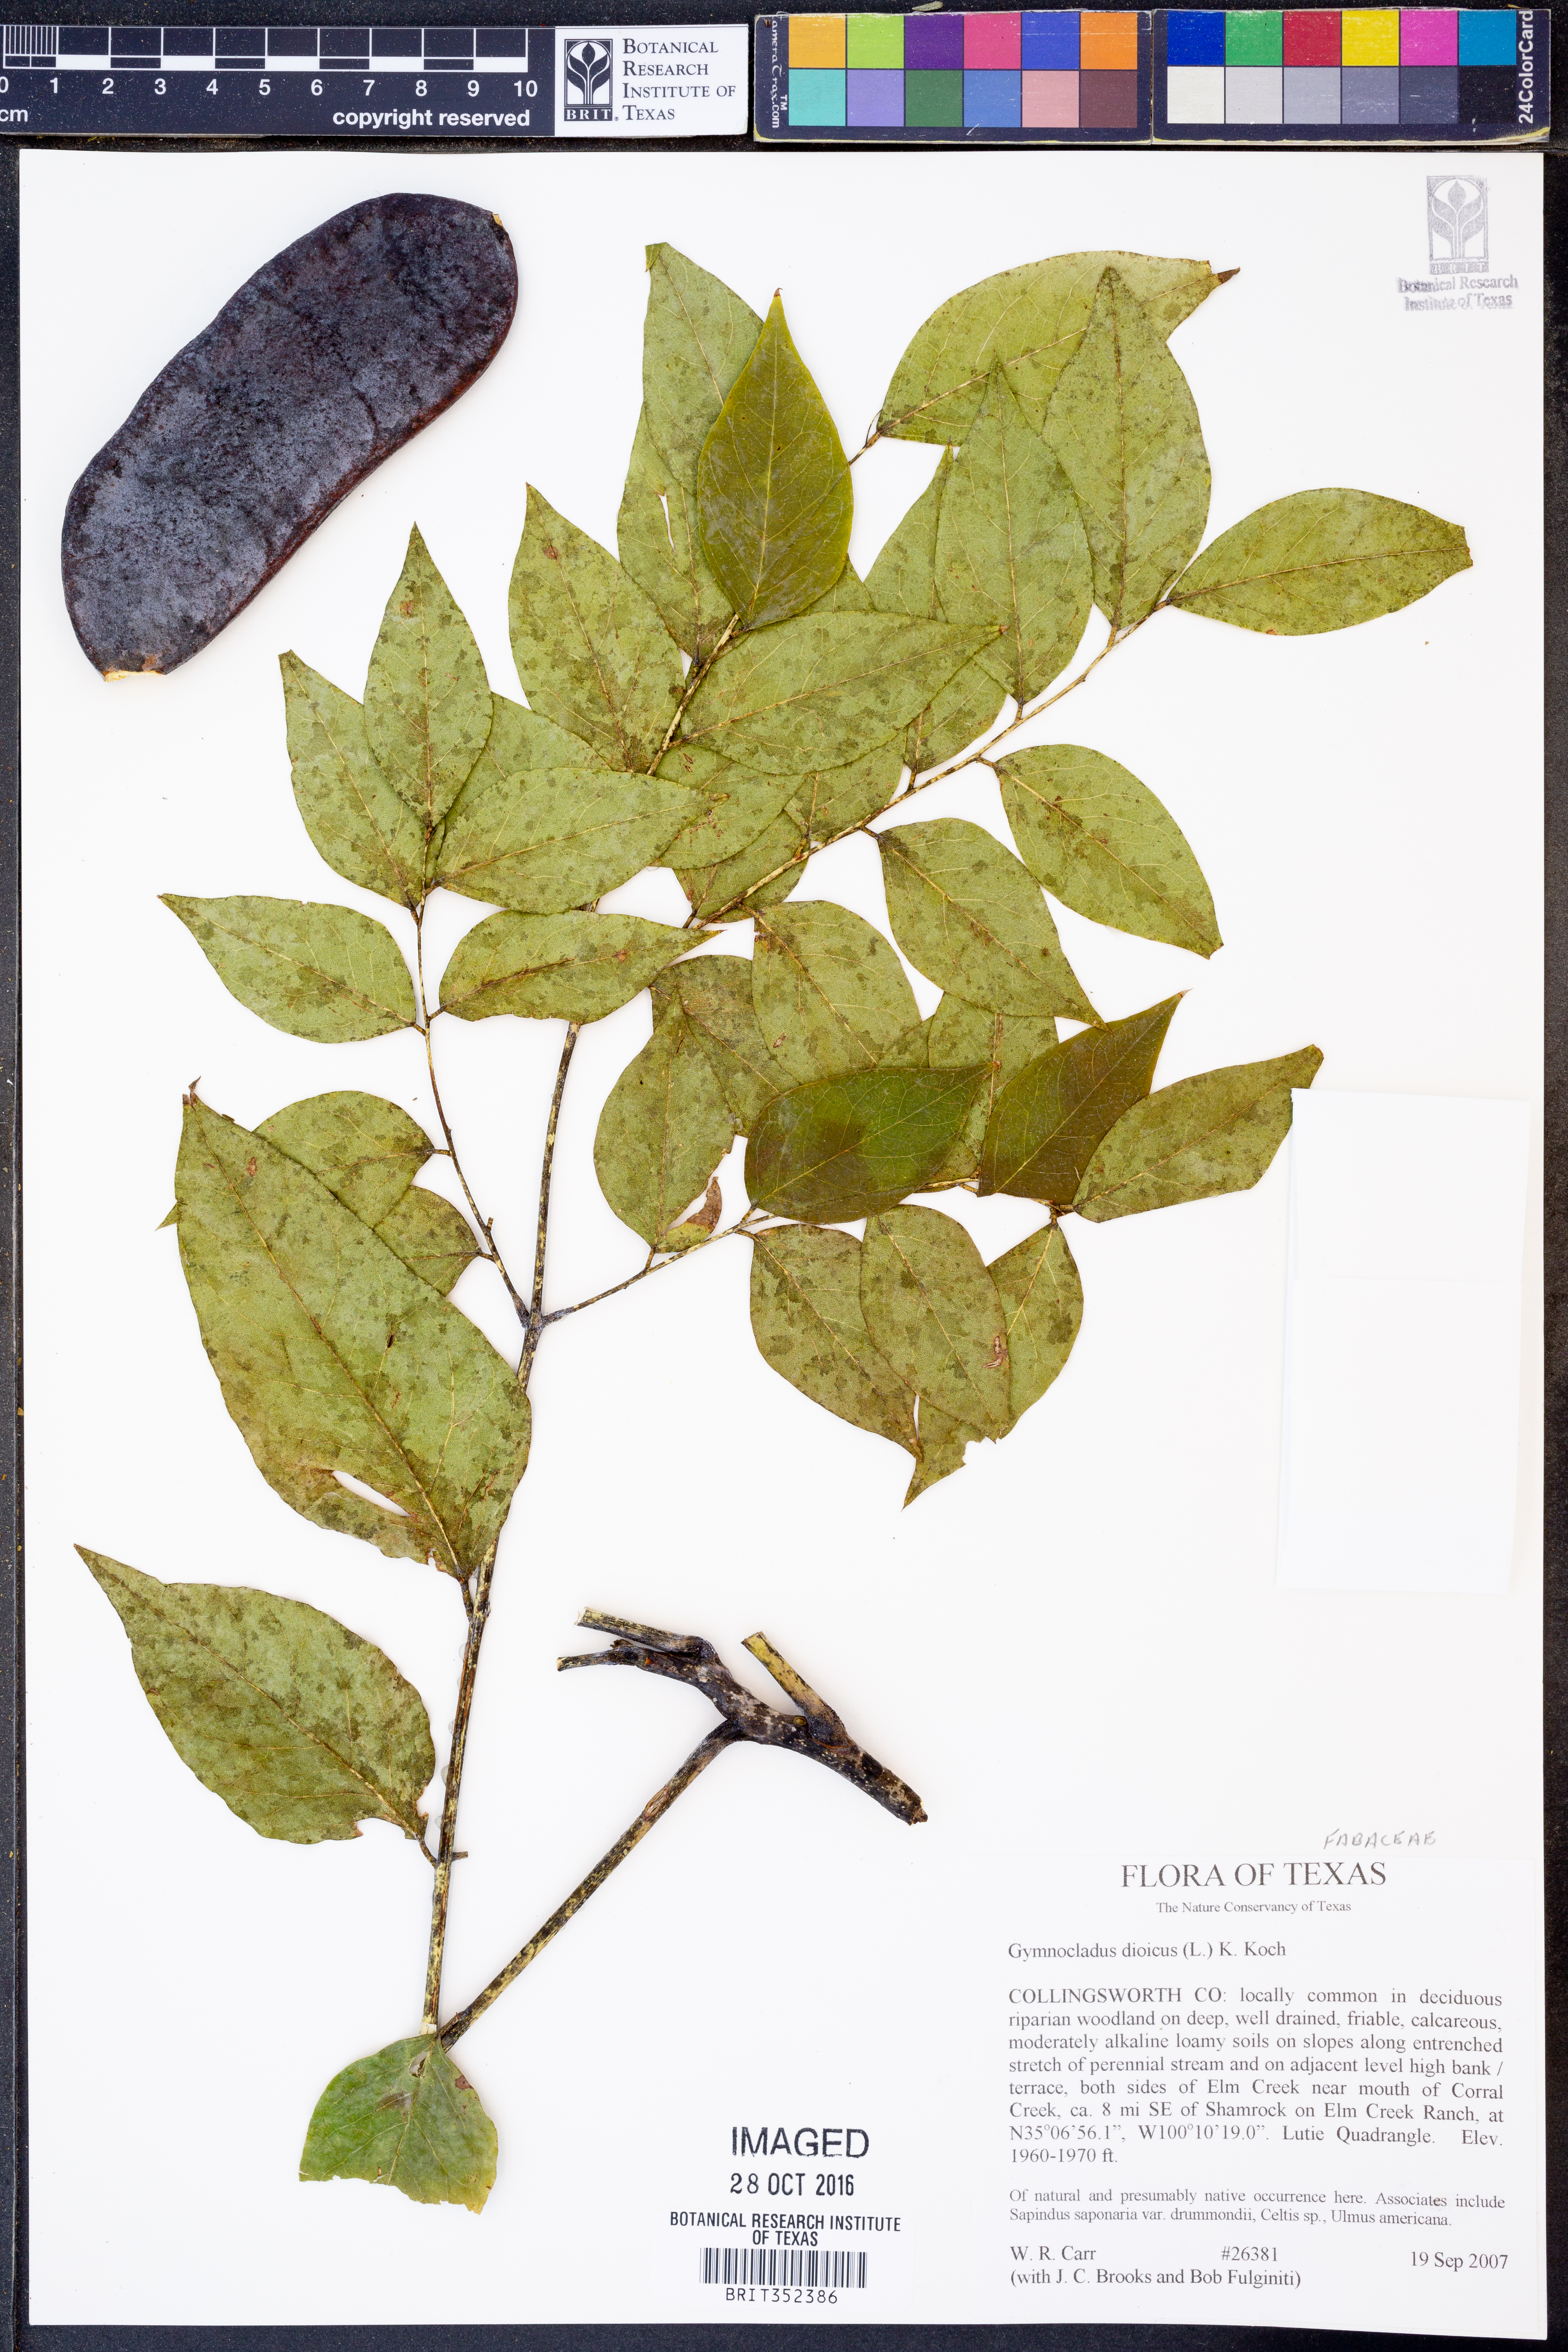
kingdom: Plantae
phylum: Tracheophyta
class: Magnoliopsida
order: Fabales
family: Fabaceae
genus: Gymnocladus
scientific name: Gymnocladus dioicus
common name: Kentucky coffee-tree
